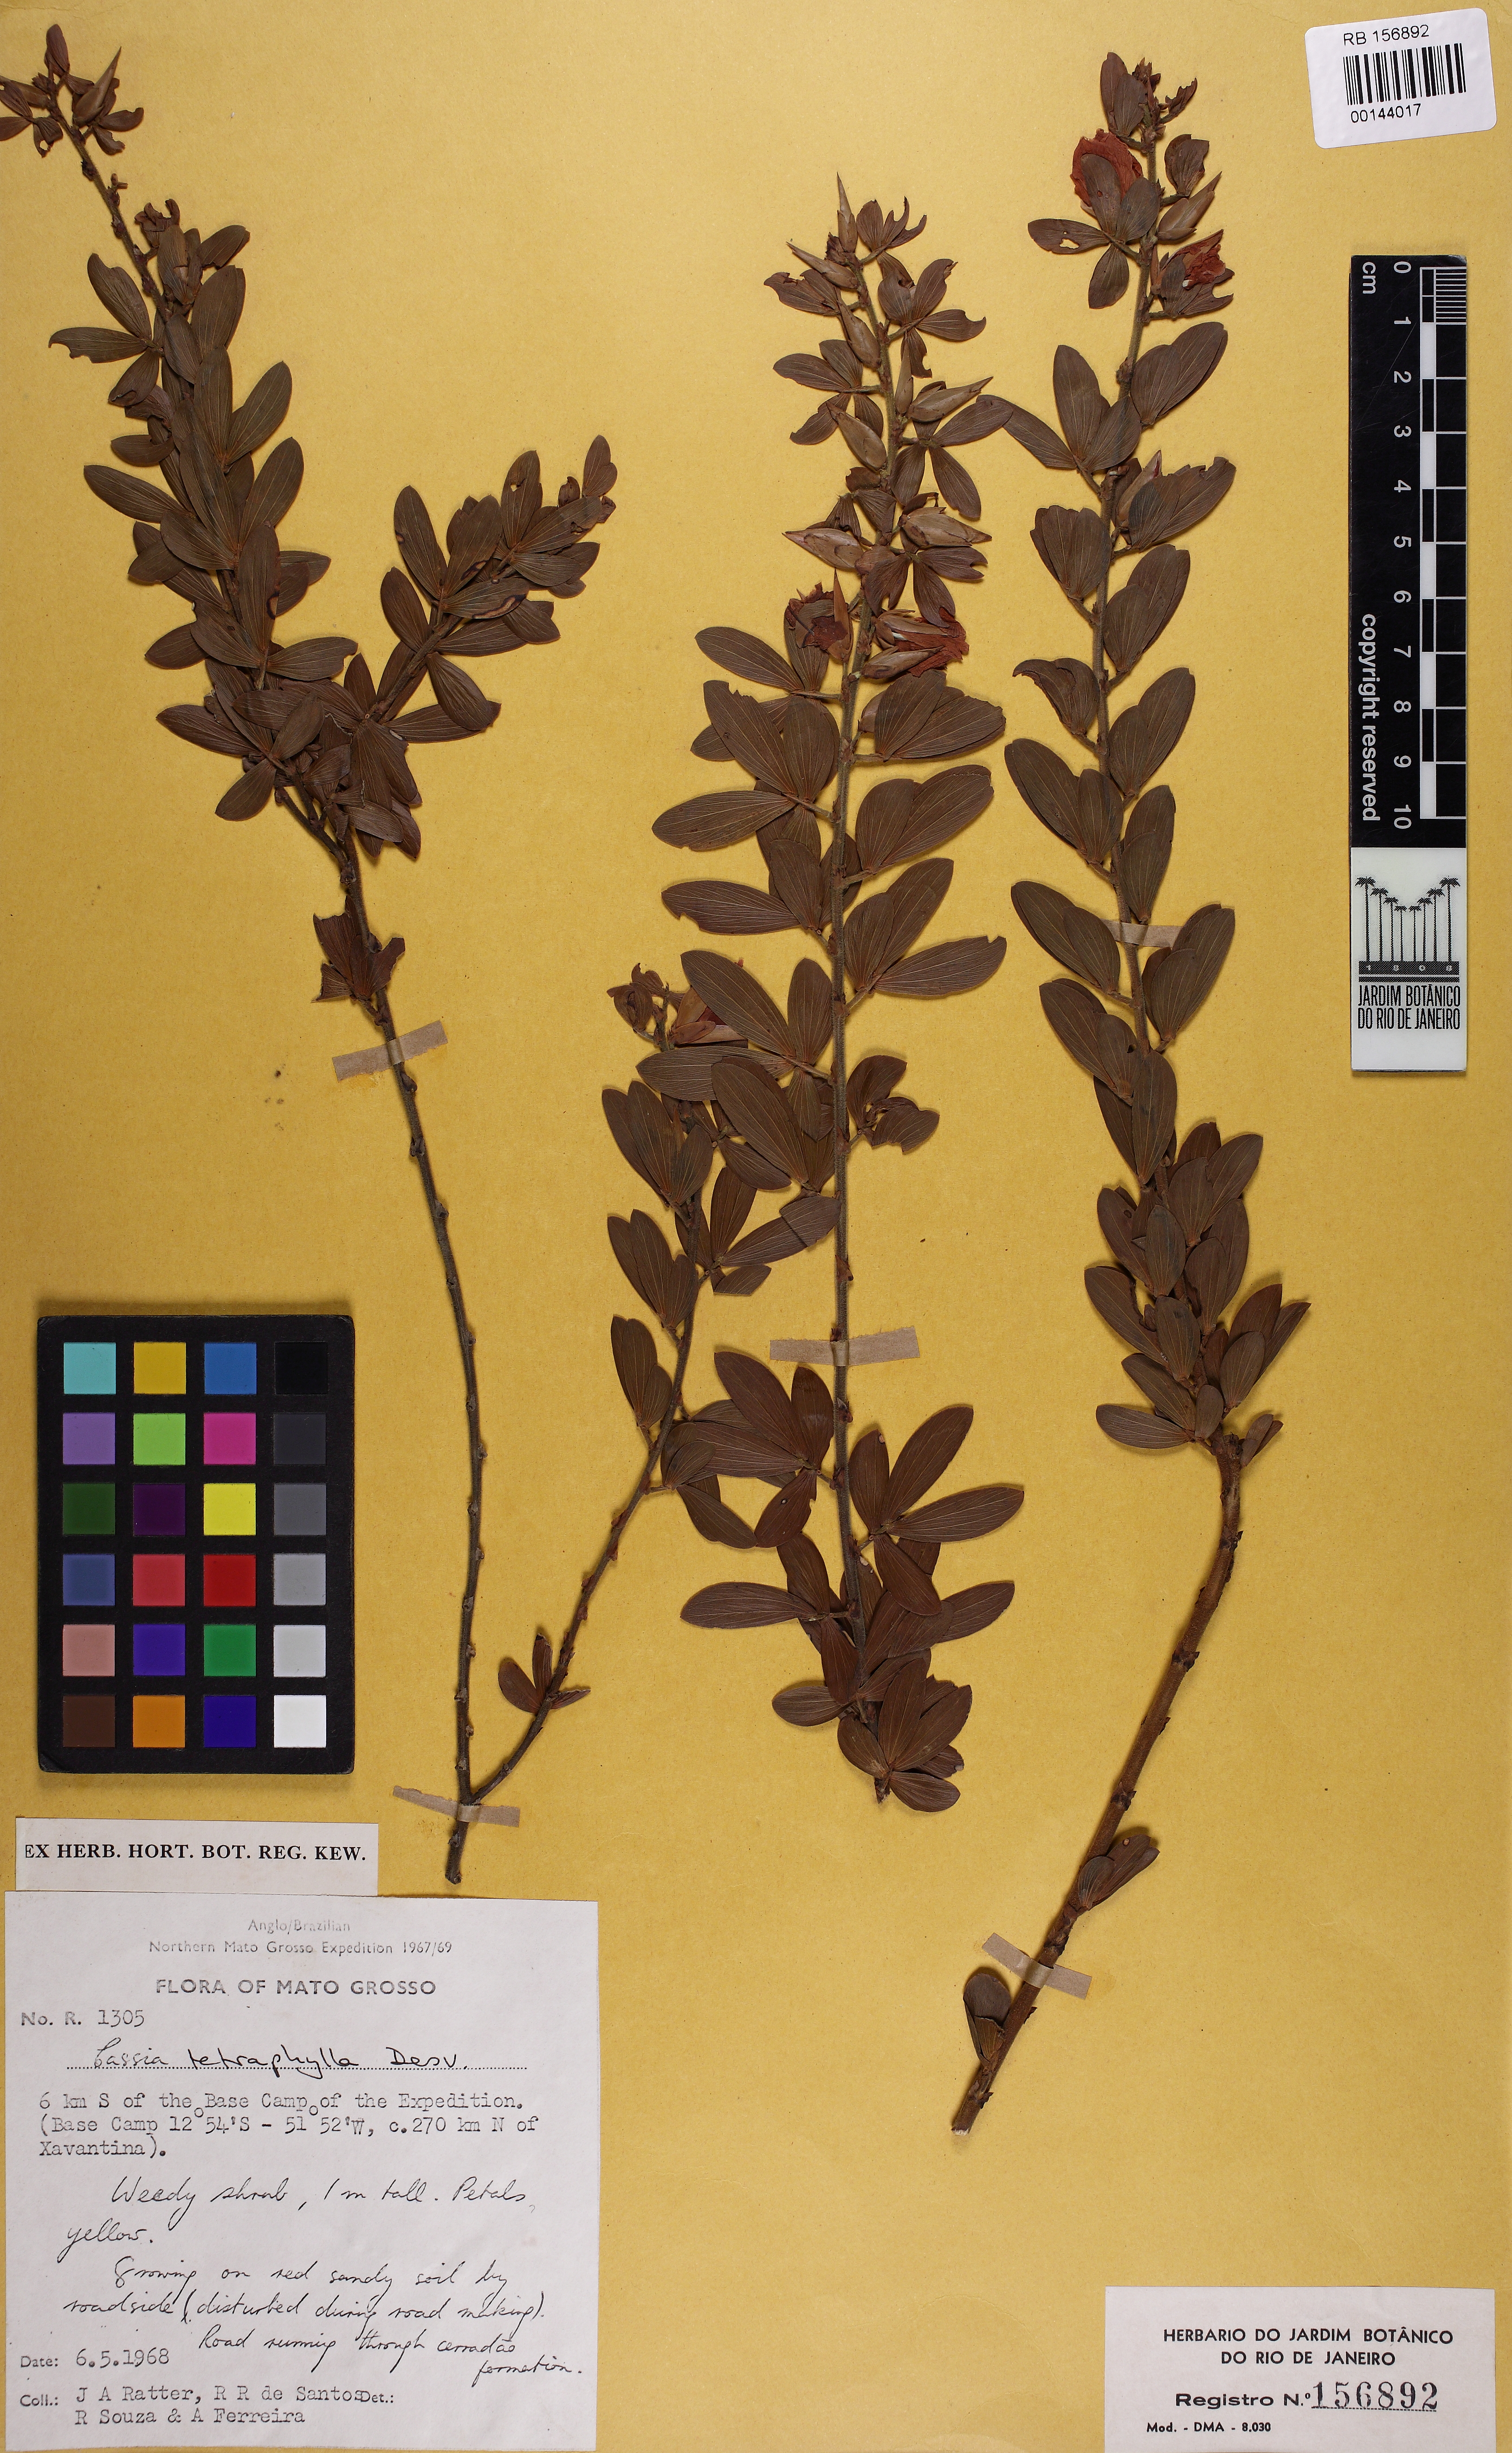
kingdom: Plantae
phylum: Tracheophyta
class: Magnoliopsida
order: Fabales
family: Fabaceae
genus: Chamaecrista
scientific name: Chamaecrista desvauxii
